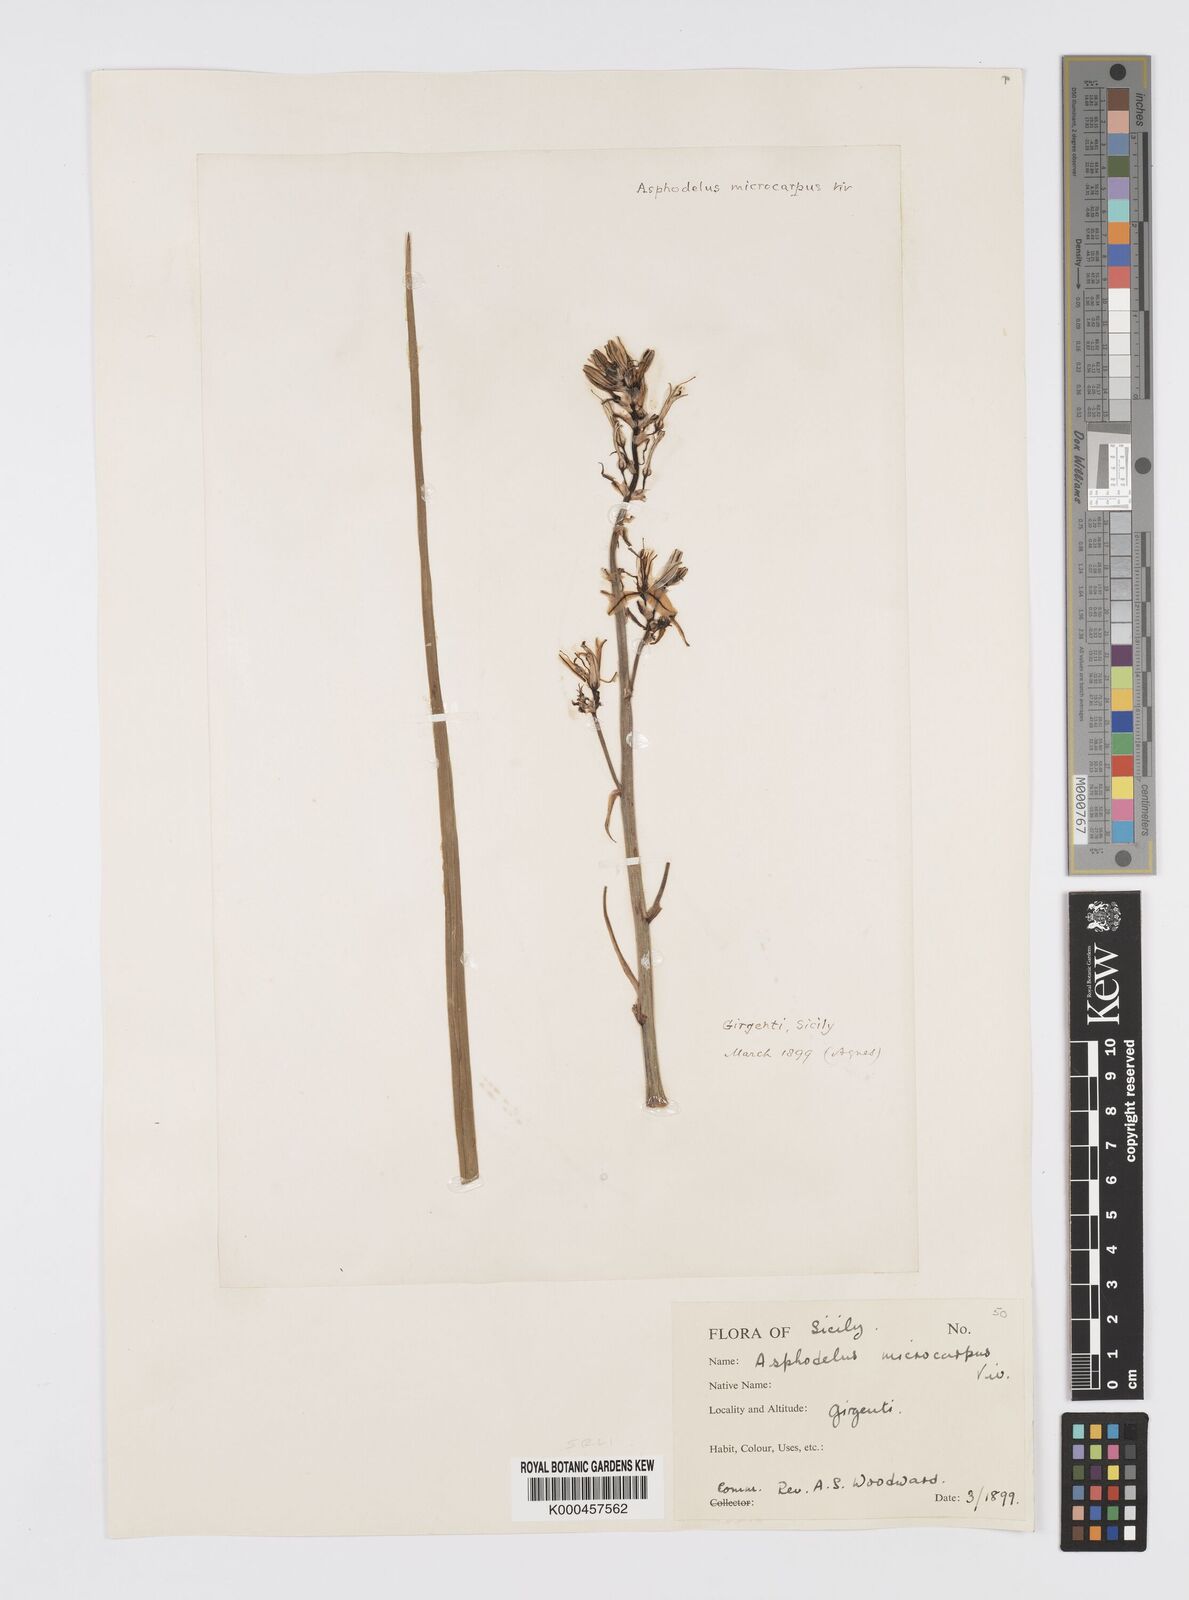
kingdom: Plantae
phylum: Tracheophyta
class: Liliopsida
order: Asparagales
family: Asphodelaceae
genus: Asphodelus
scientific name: Asphodelus aestivus
